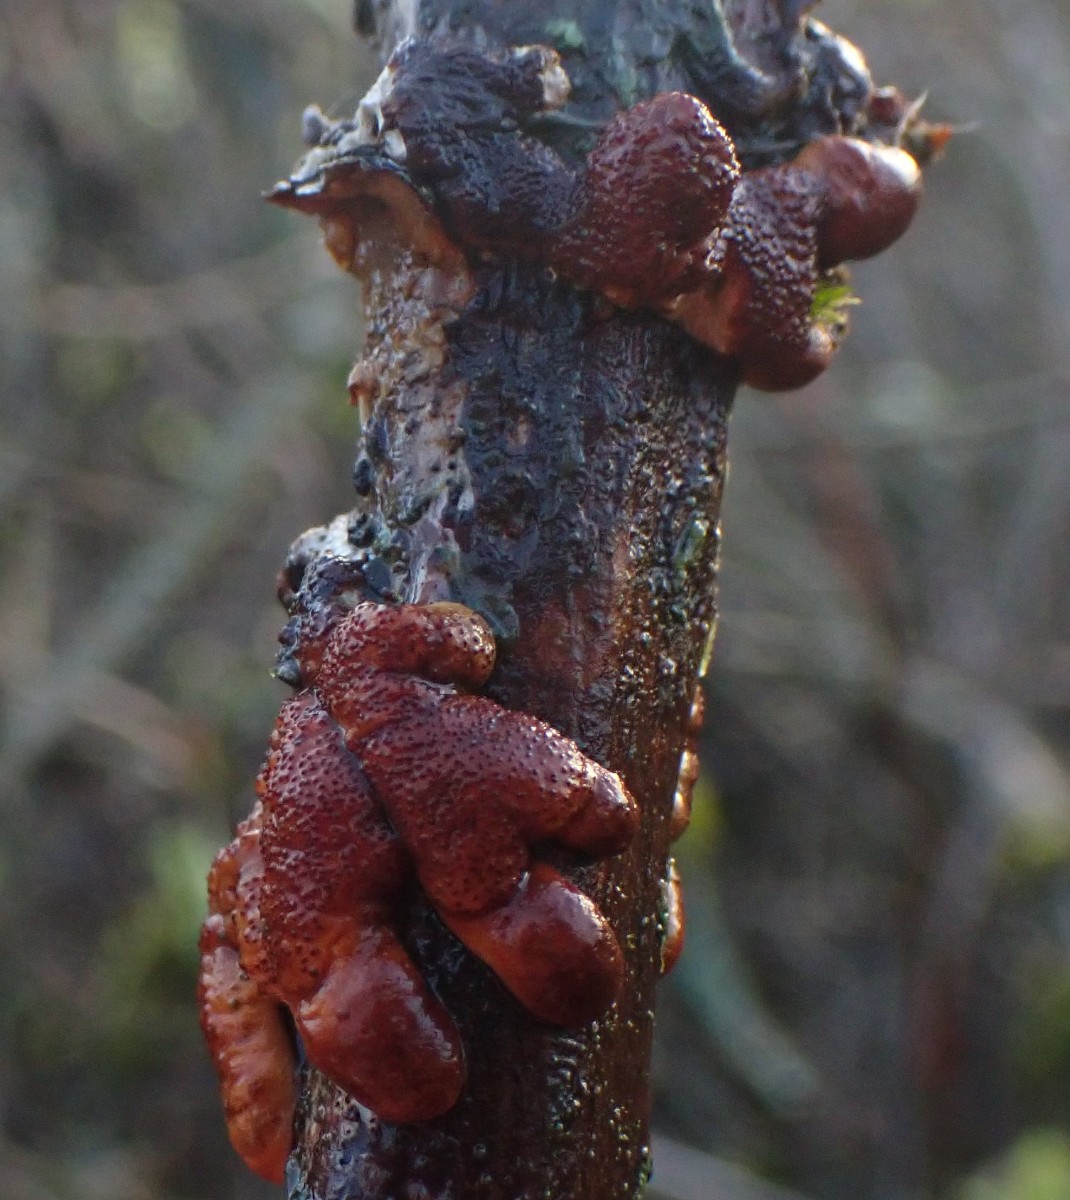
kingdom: Fungi
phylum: Ascomycota
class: Sordariomycetes
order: Hypocreales
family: Hypocreaceae
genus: Hypocreopsis
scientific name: Hypocreopsis lichenoides
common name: pilfinger
